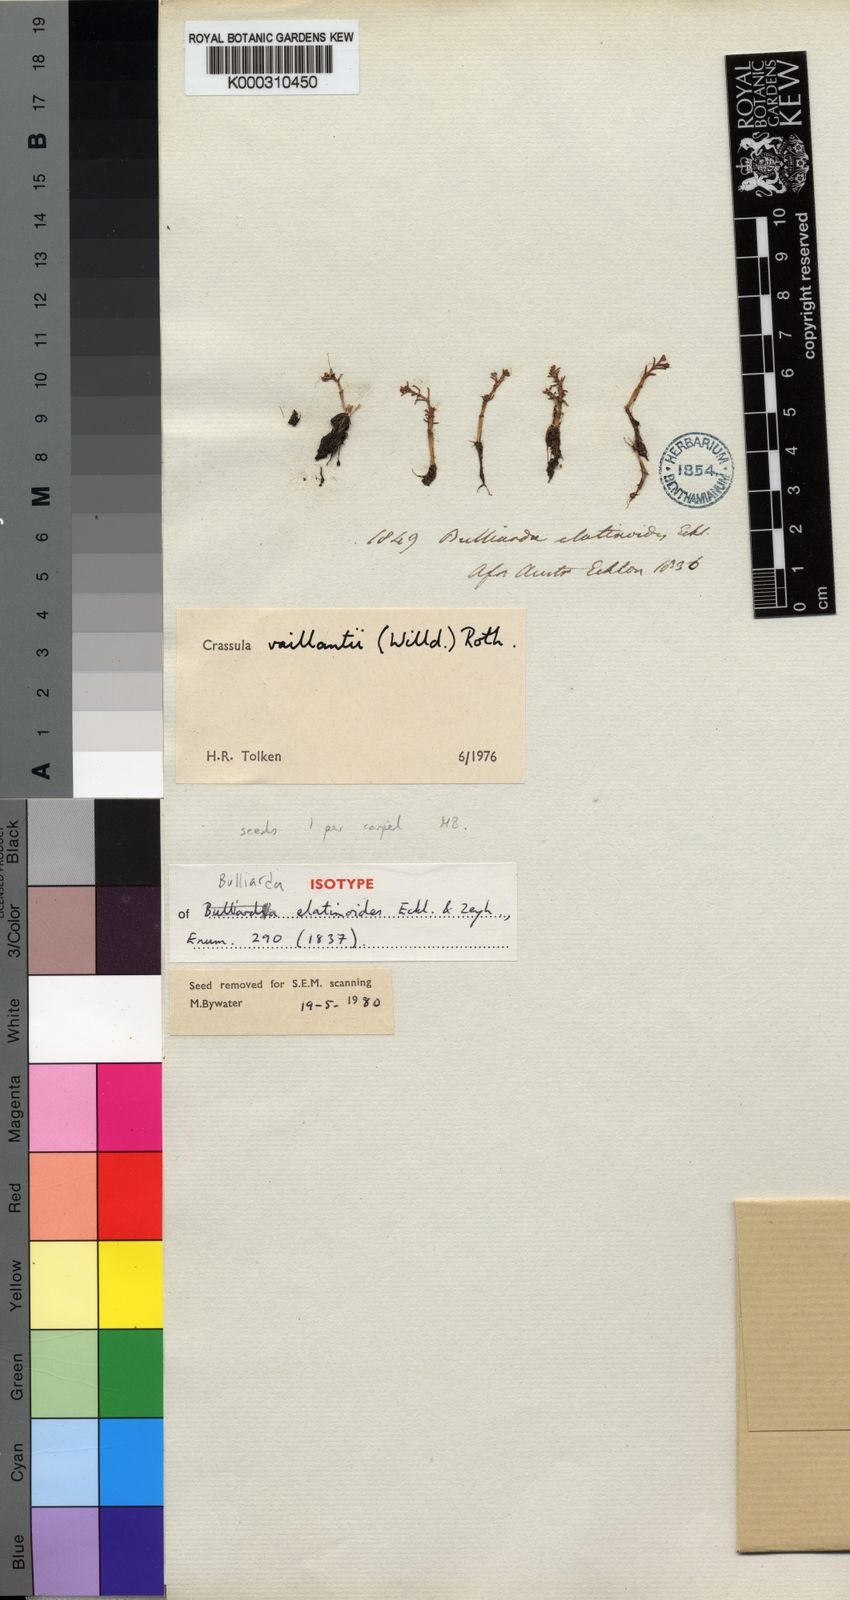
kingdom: Plantae
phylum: Tracheophyta
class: Magnoliopsida
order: Saxifragales
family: Crassulaceae
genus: Crassula
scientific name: Crassula natans
